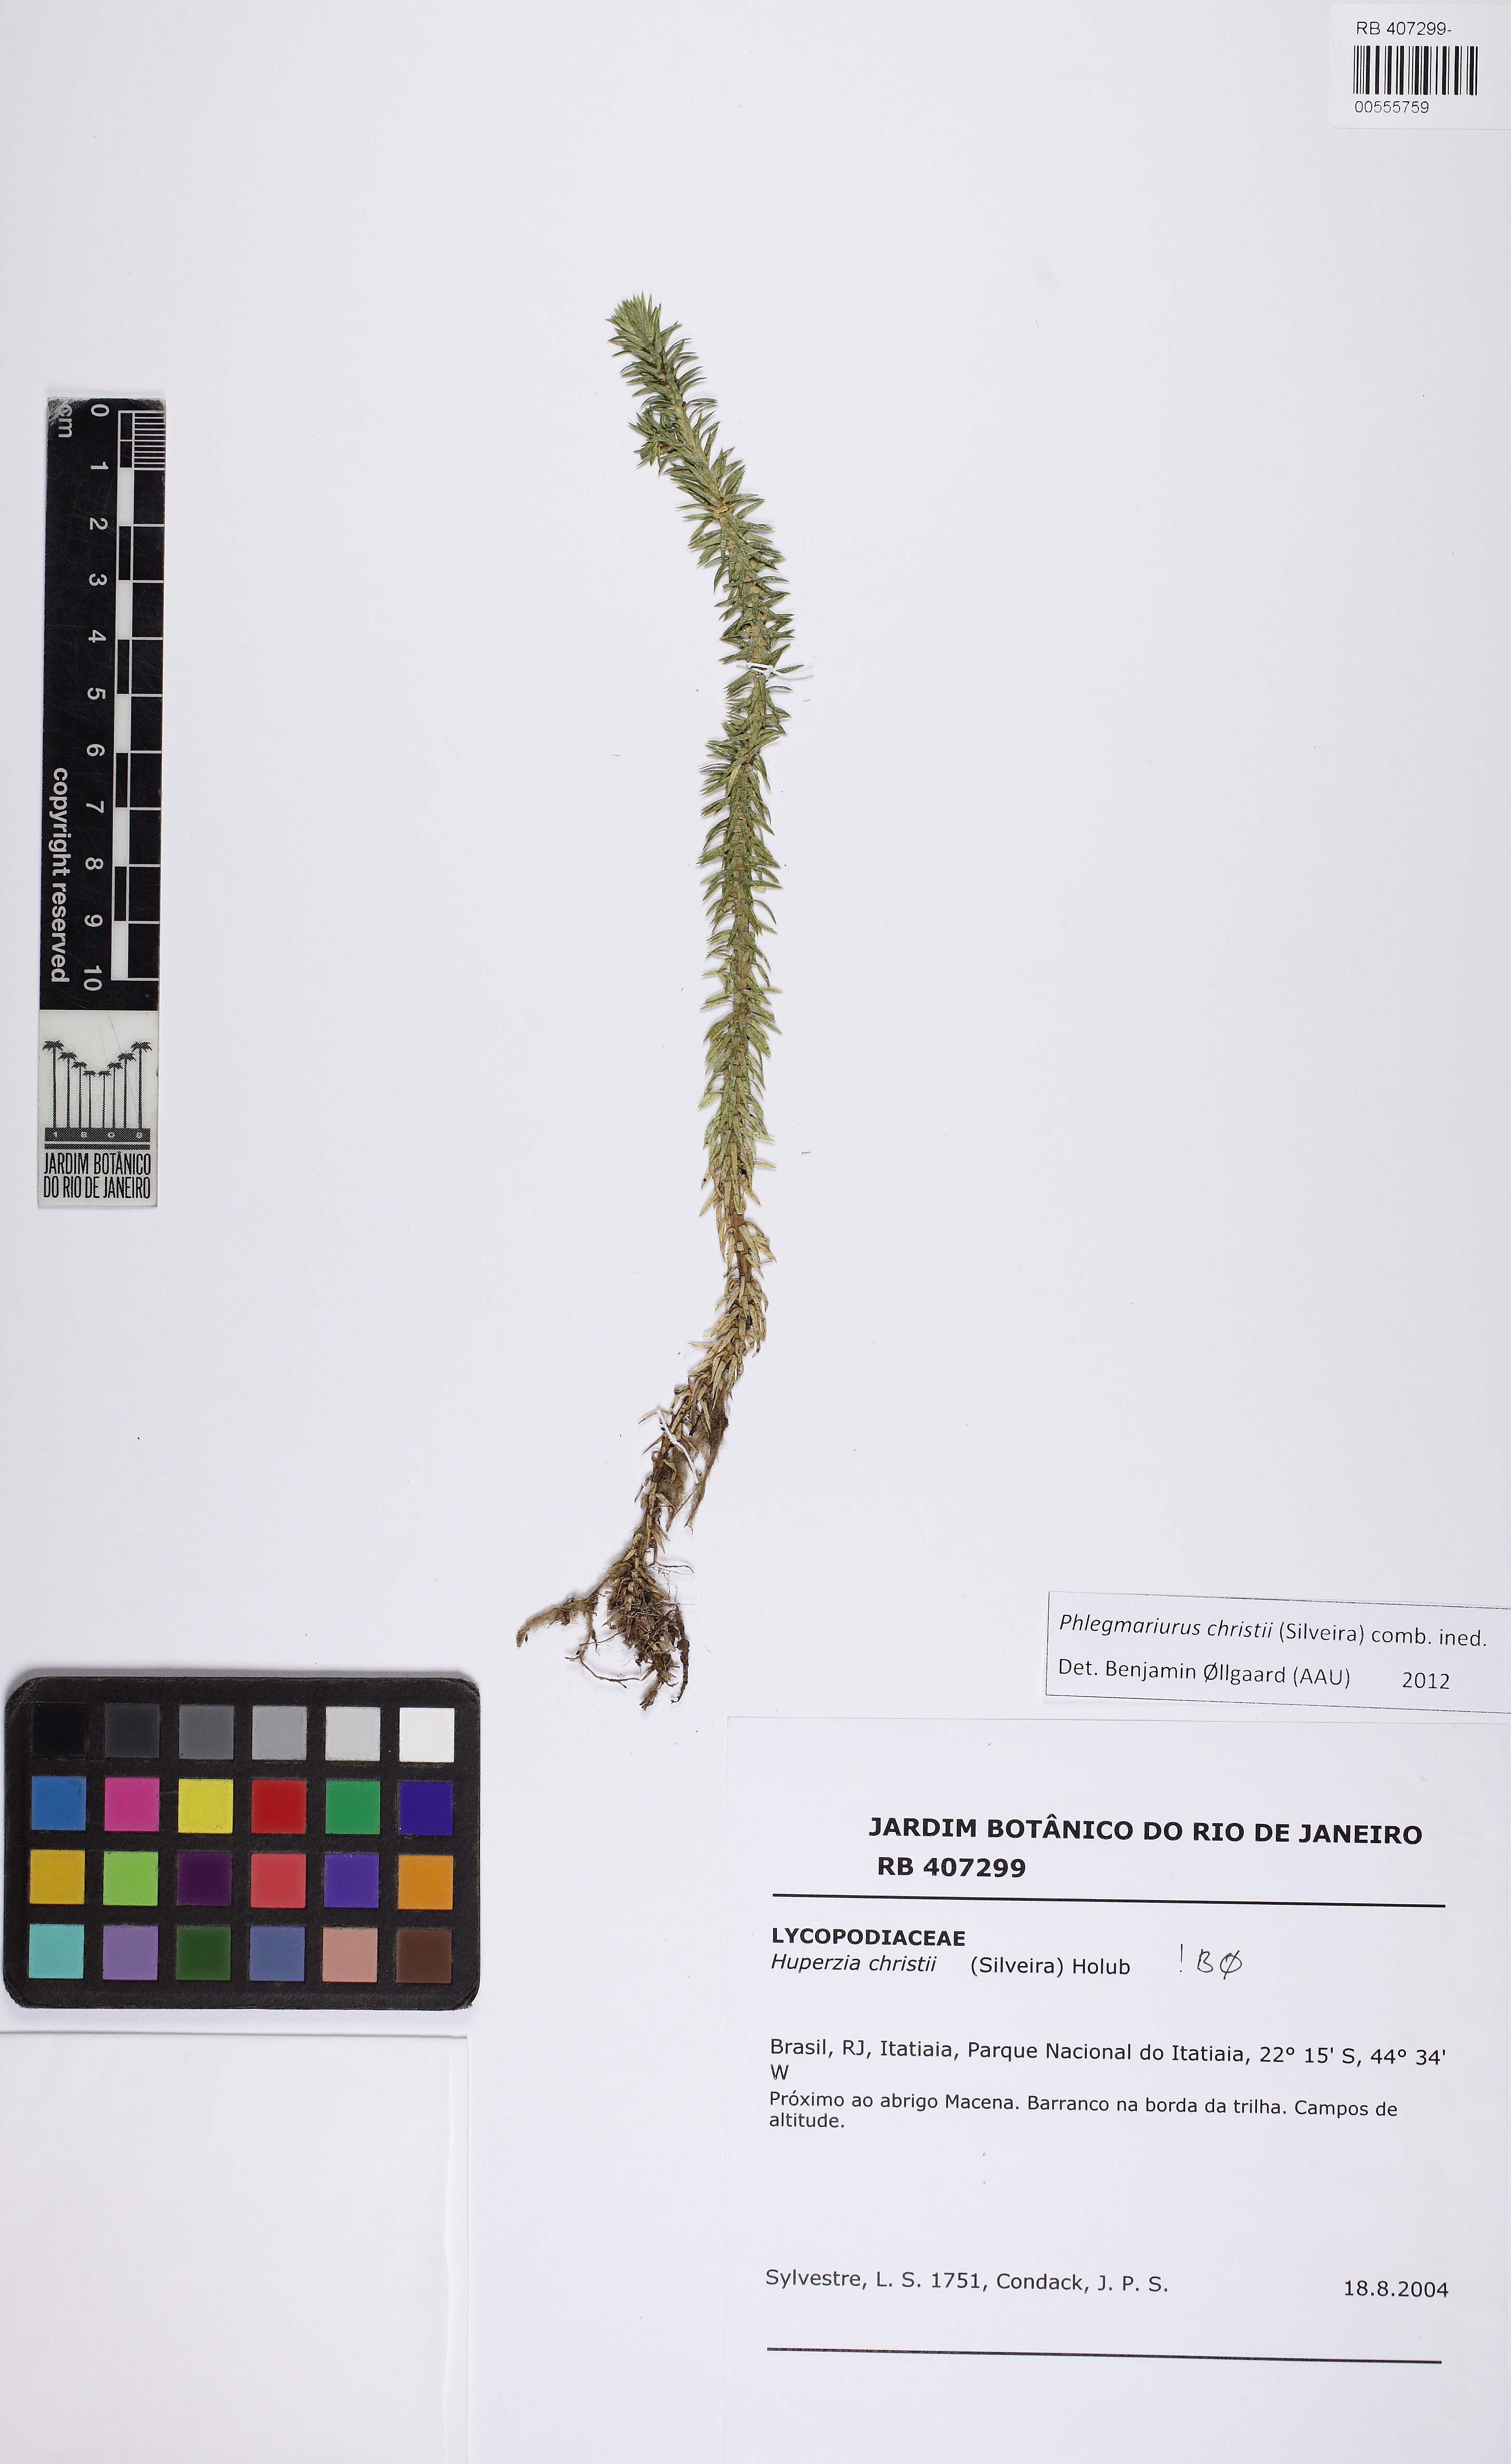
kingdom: Plantae
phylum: Tracheophyta
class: Lycopodiopsida
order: Lycopodiales
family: Lycopodiaceae
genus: Phlegmariurus
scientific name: Phlegmariurus christii
